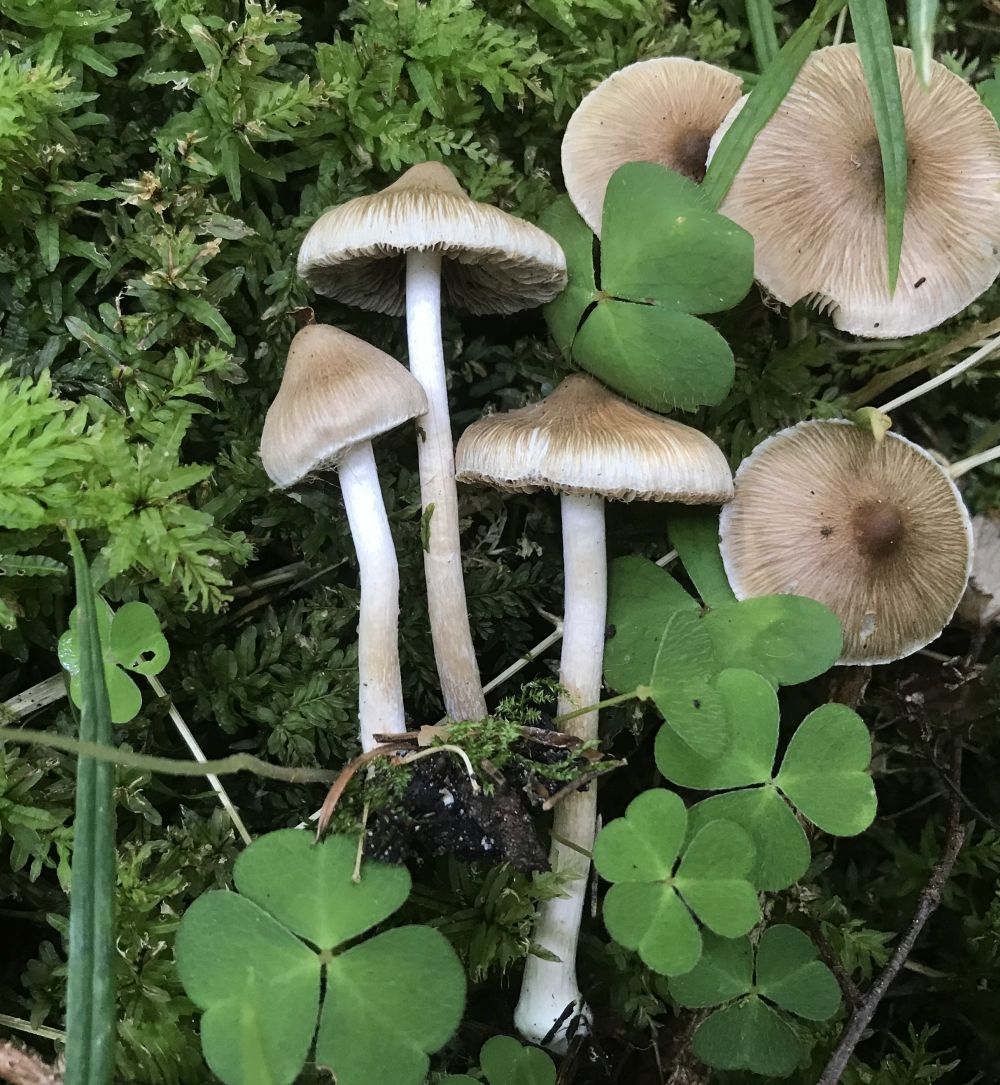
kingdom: Fungi
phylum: Basidiomycota
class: Agaricomycetes
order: Agaricales
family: Inocybaceae
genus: Inocybe
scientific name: Inocybe
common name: trævlhat
